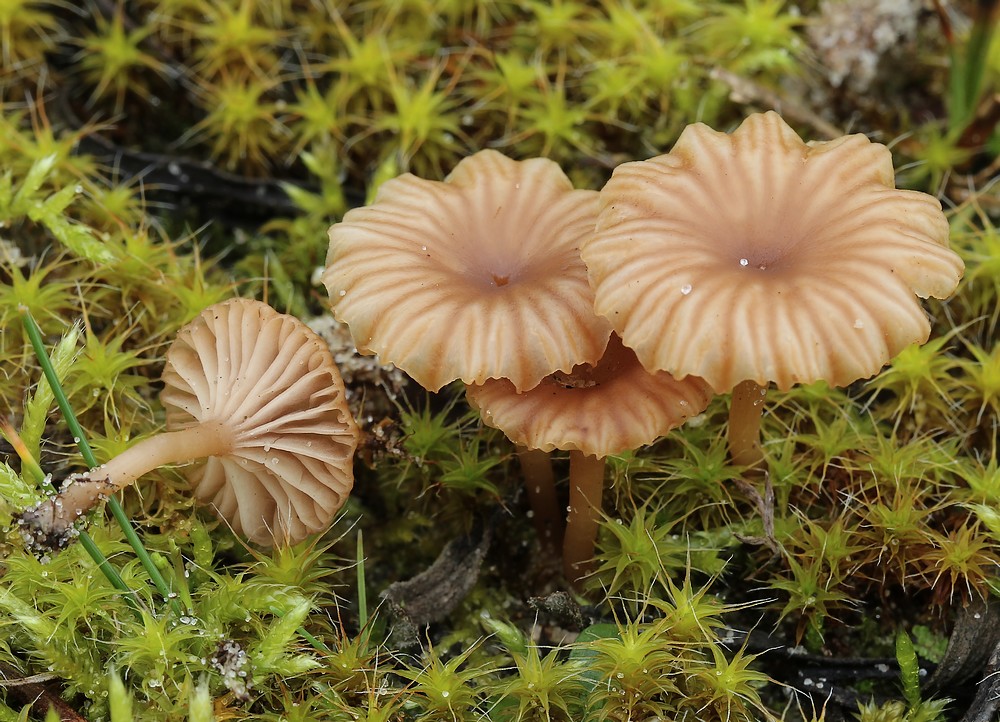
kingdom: Fungi
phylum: Basidiomycota
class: Agaricomycetes
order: Agaricales
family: Tricholomataceae
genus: Omphalina
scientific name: Omphalina pyxidata
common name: rødbrun navlehat
